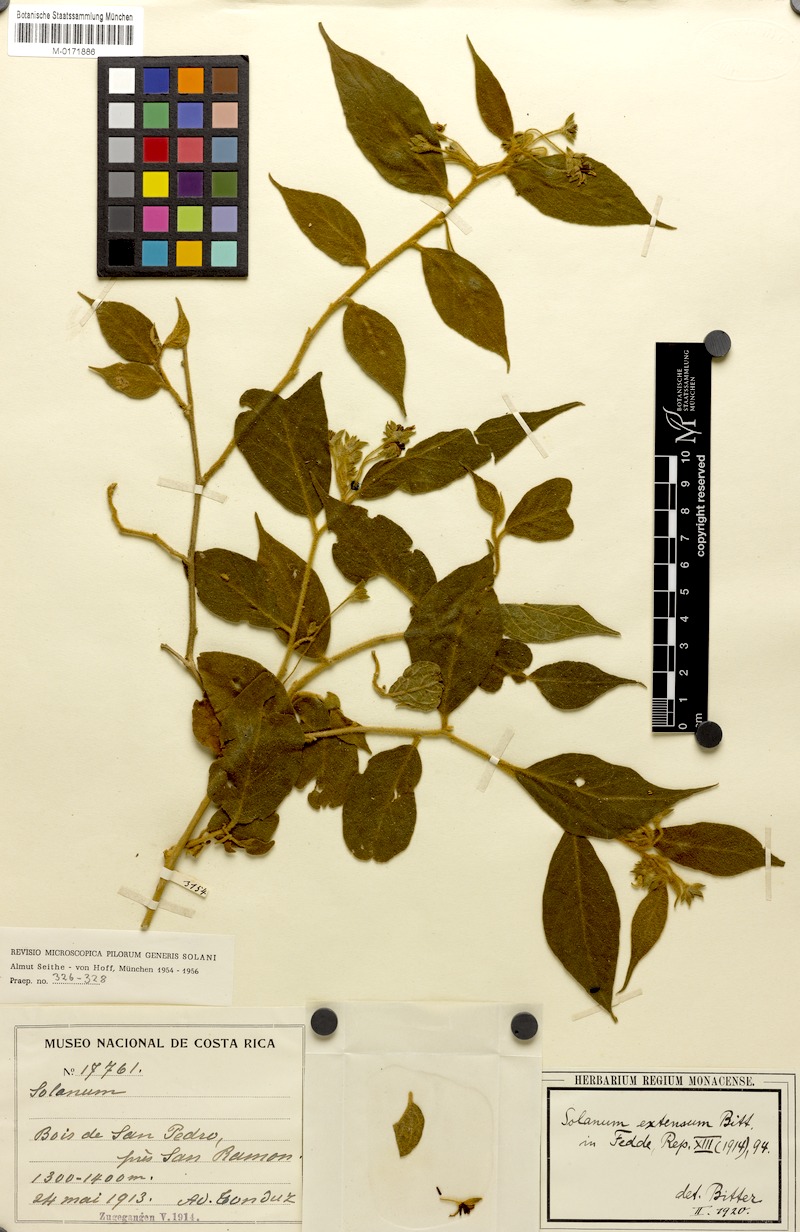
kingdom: Plantae
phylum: Tracheophyta
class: Magnoliopsida
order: Solanales
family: Solanaceae
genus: Solanum
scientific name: Solanum cordovense
